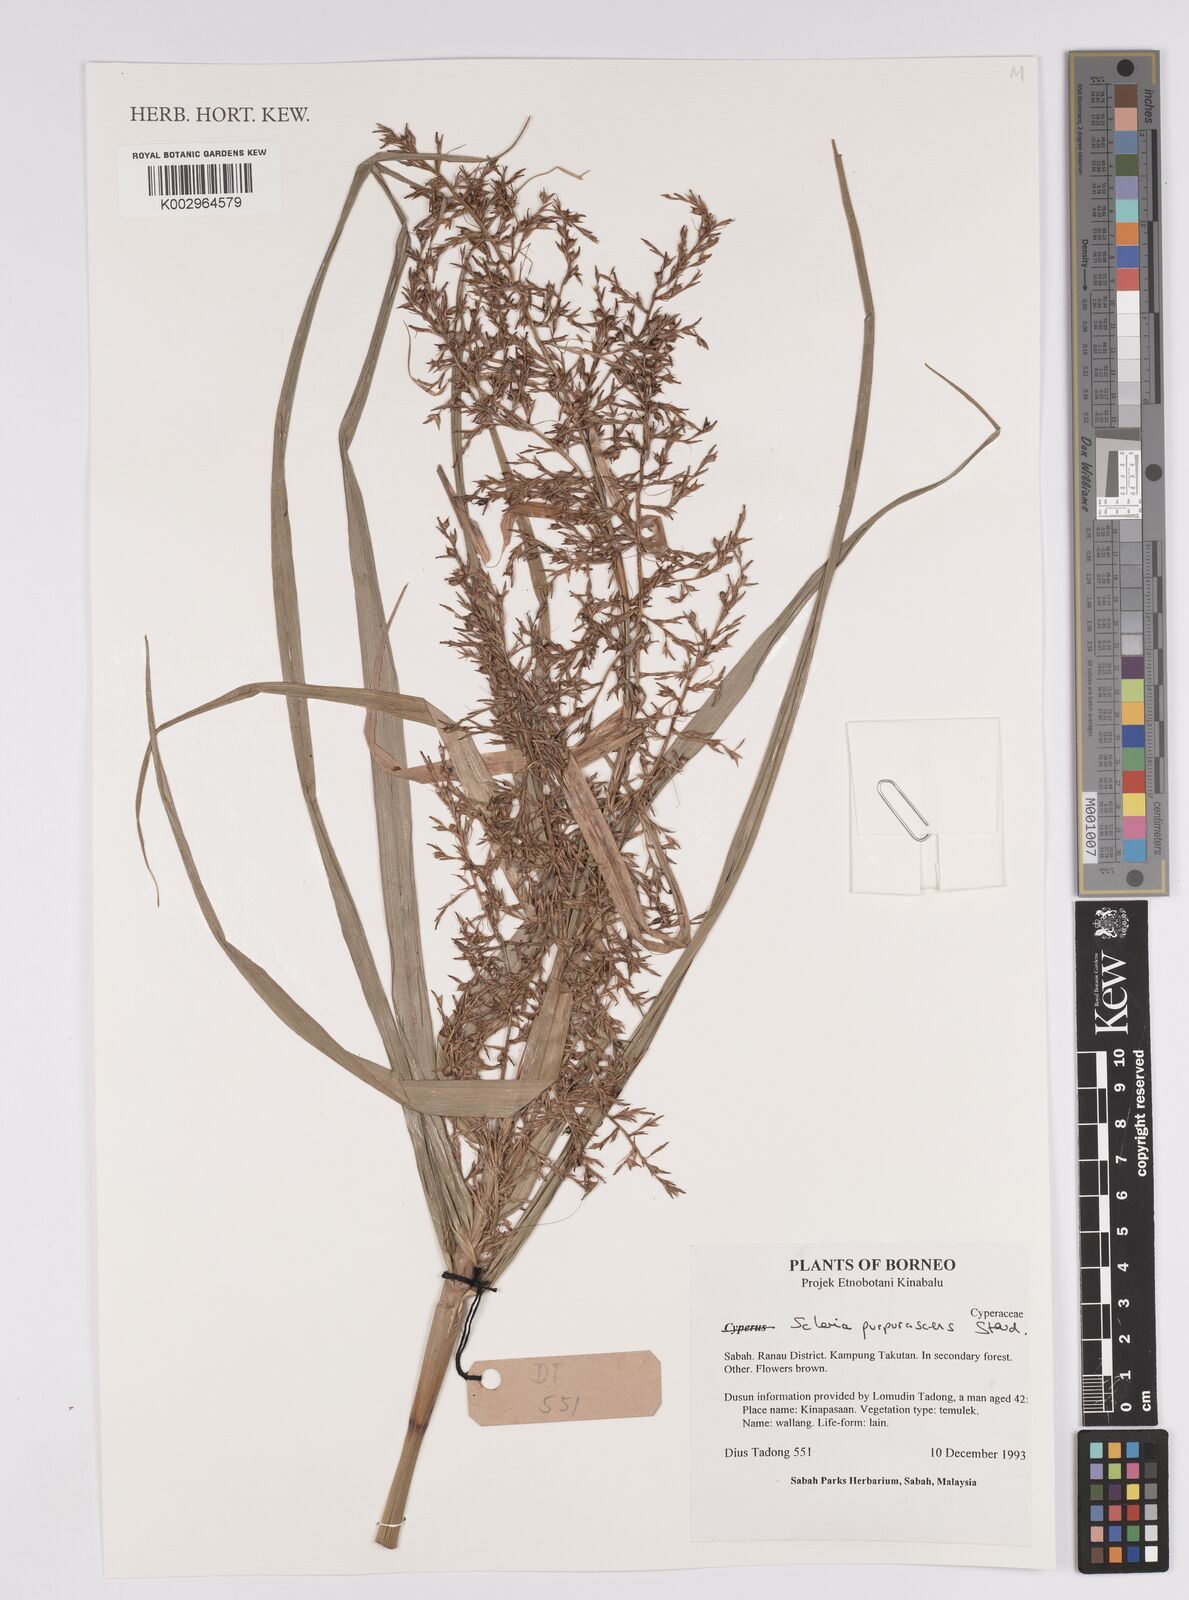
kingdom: Plantae
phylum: Tracheophyta
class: Liliopsida
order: Poales
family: Cyperaceae
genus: Scleria
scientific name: Scleria purpurascens
